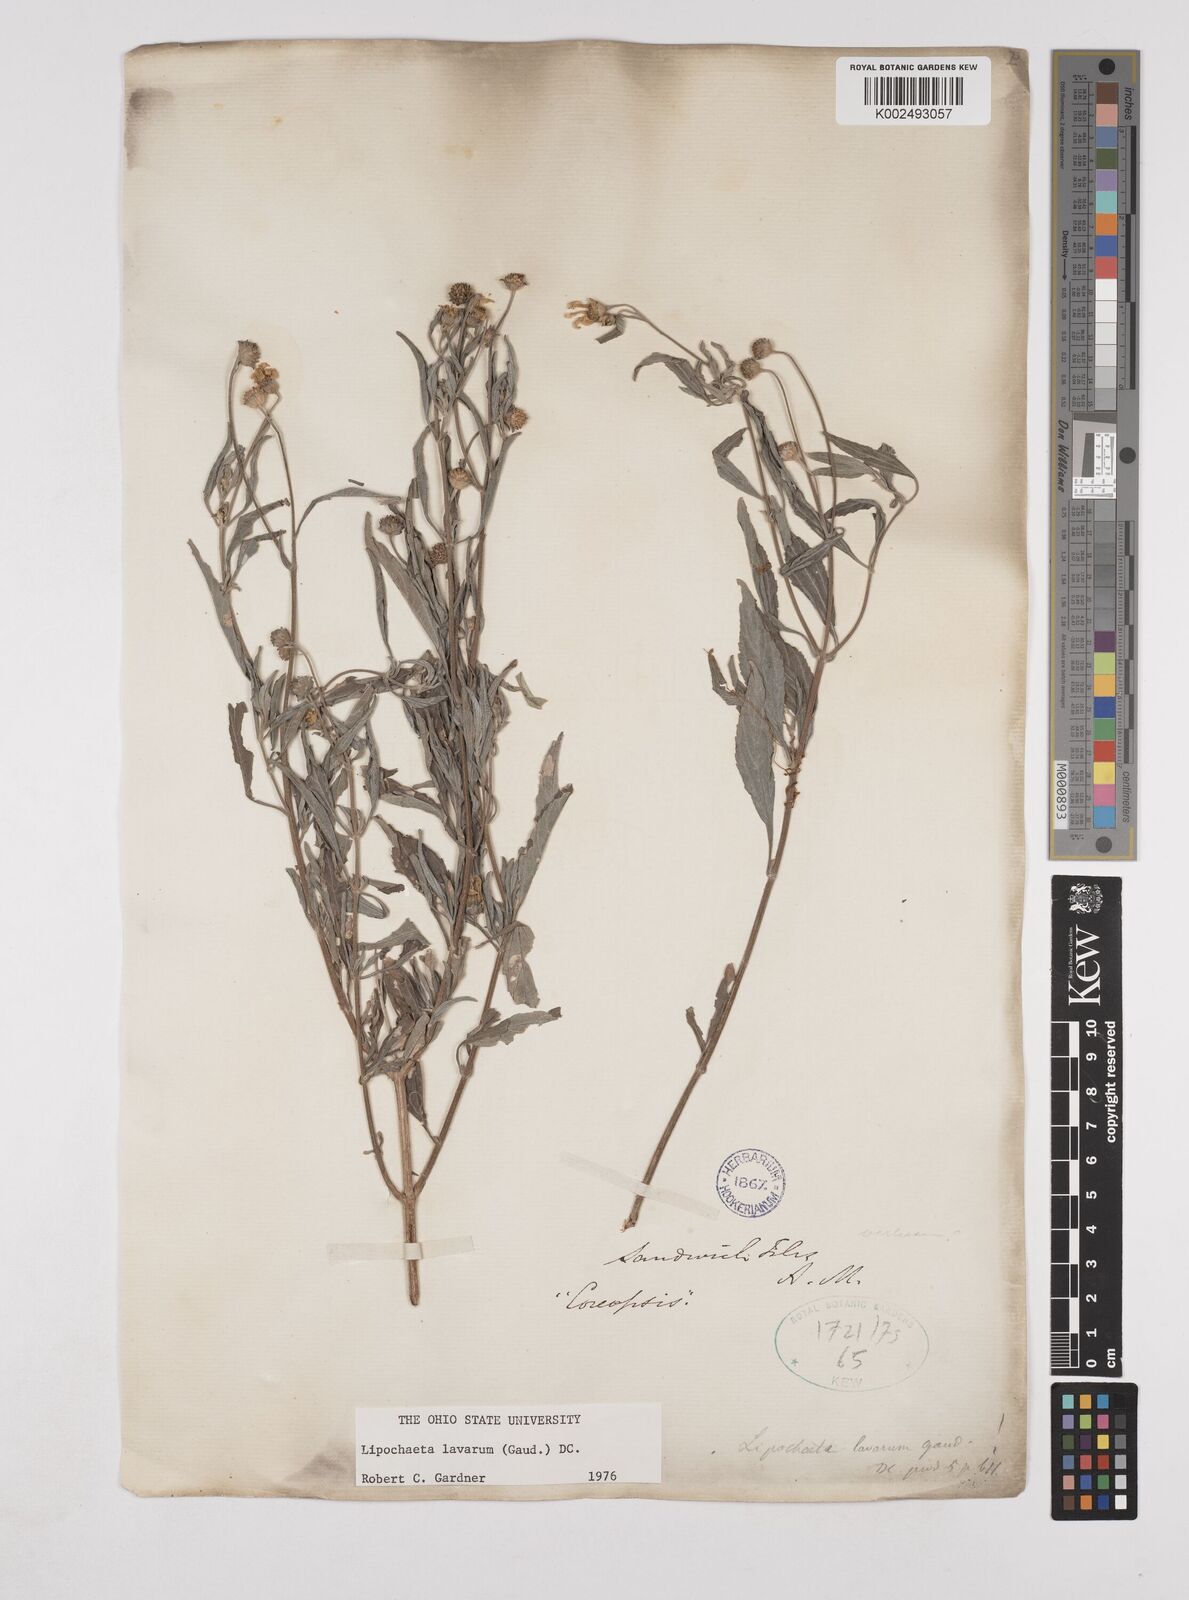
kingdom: Plantae
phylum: Tracheophyta
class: Magnoliopsida
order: Asterales
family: Asteraceae
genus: Lipochaeta
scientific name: Lipochaeta lavarum
